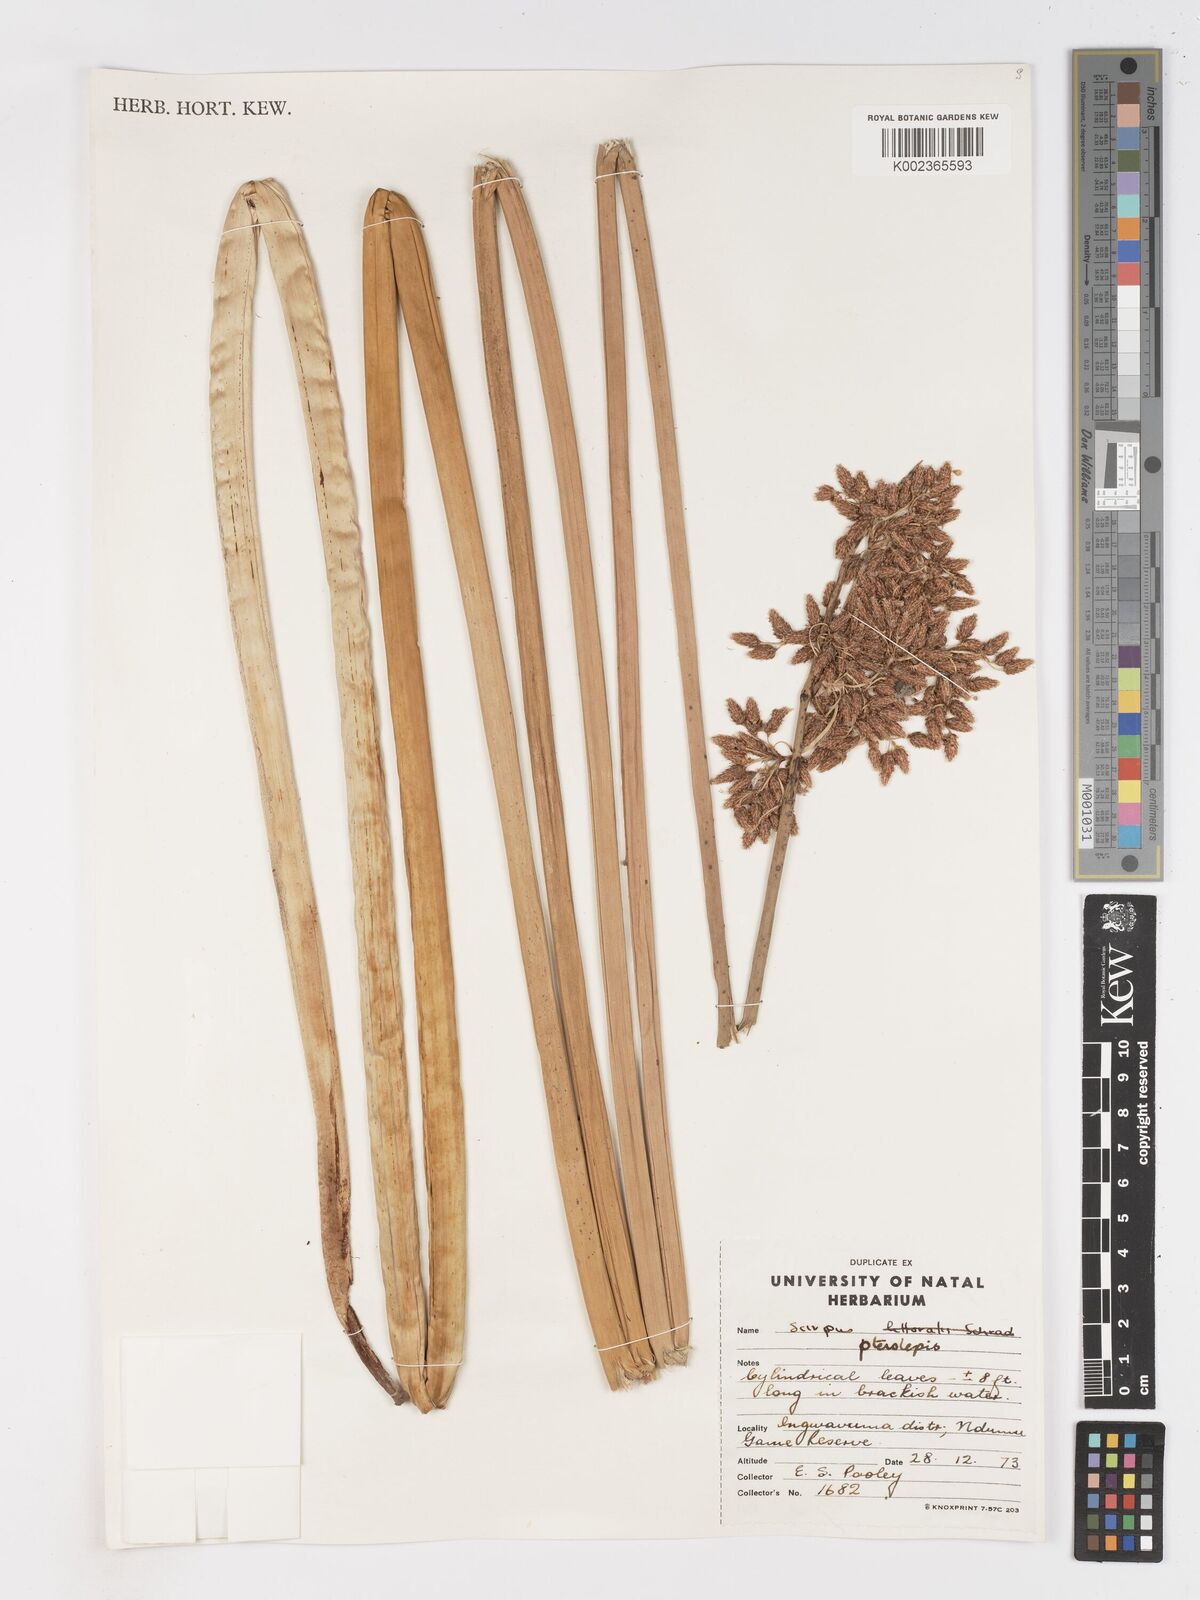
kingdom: Plantae
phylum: Tracheophyta
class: Liliopsida
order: Poales
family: Cyperaceae
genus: Schoenoplectus
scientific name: Schoenoplectus
